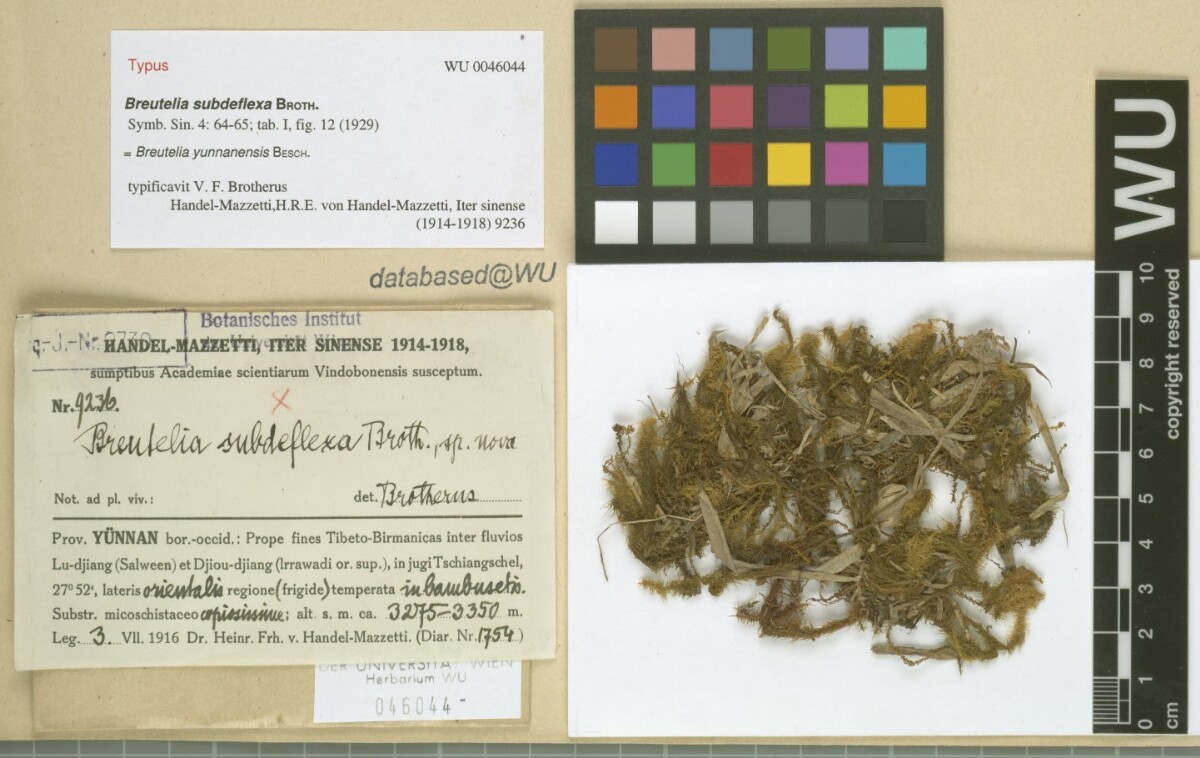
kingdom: Plantae
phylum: Bryophyta
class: Bryopsida
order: Bartramiales
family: Bartramiaceae
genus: Breutelia
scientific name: Breutelia yunnanensis
